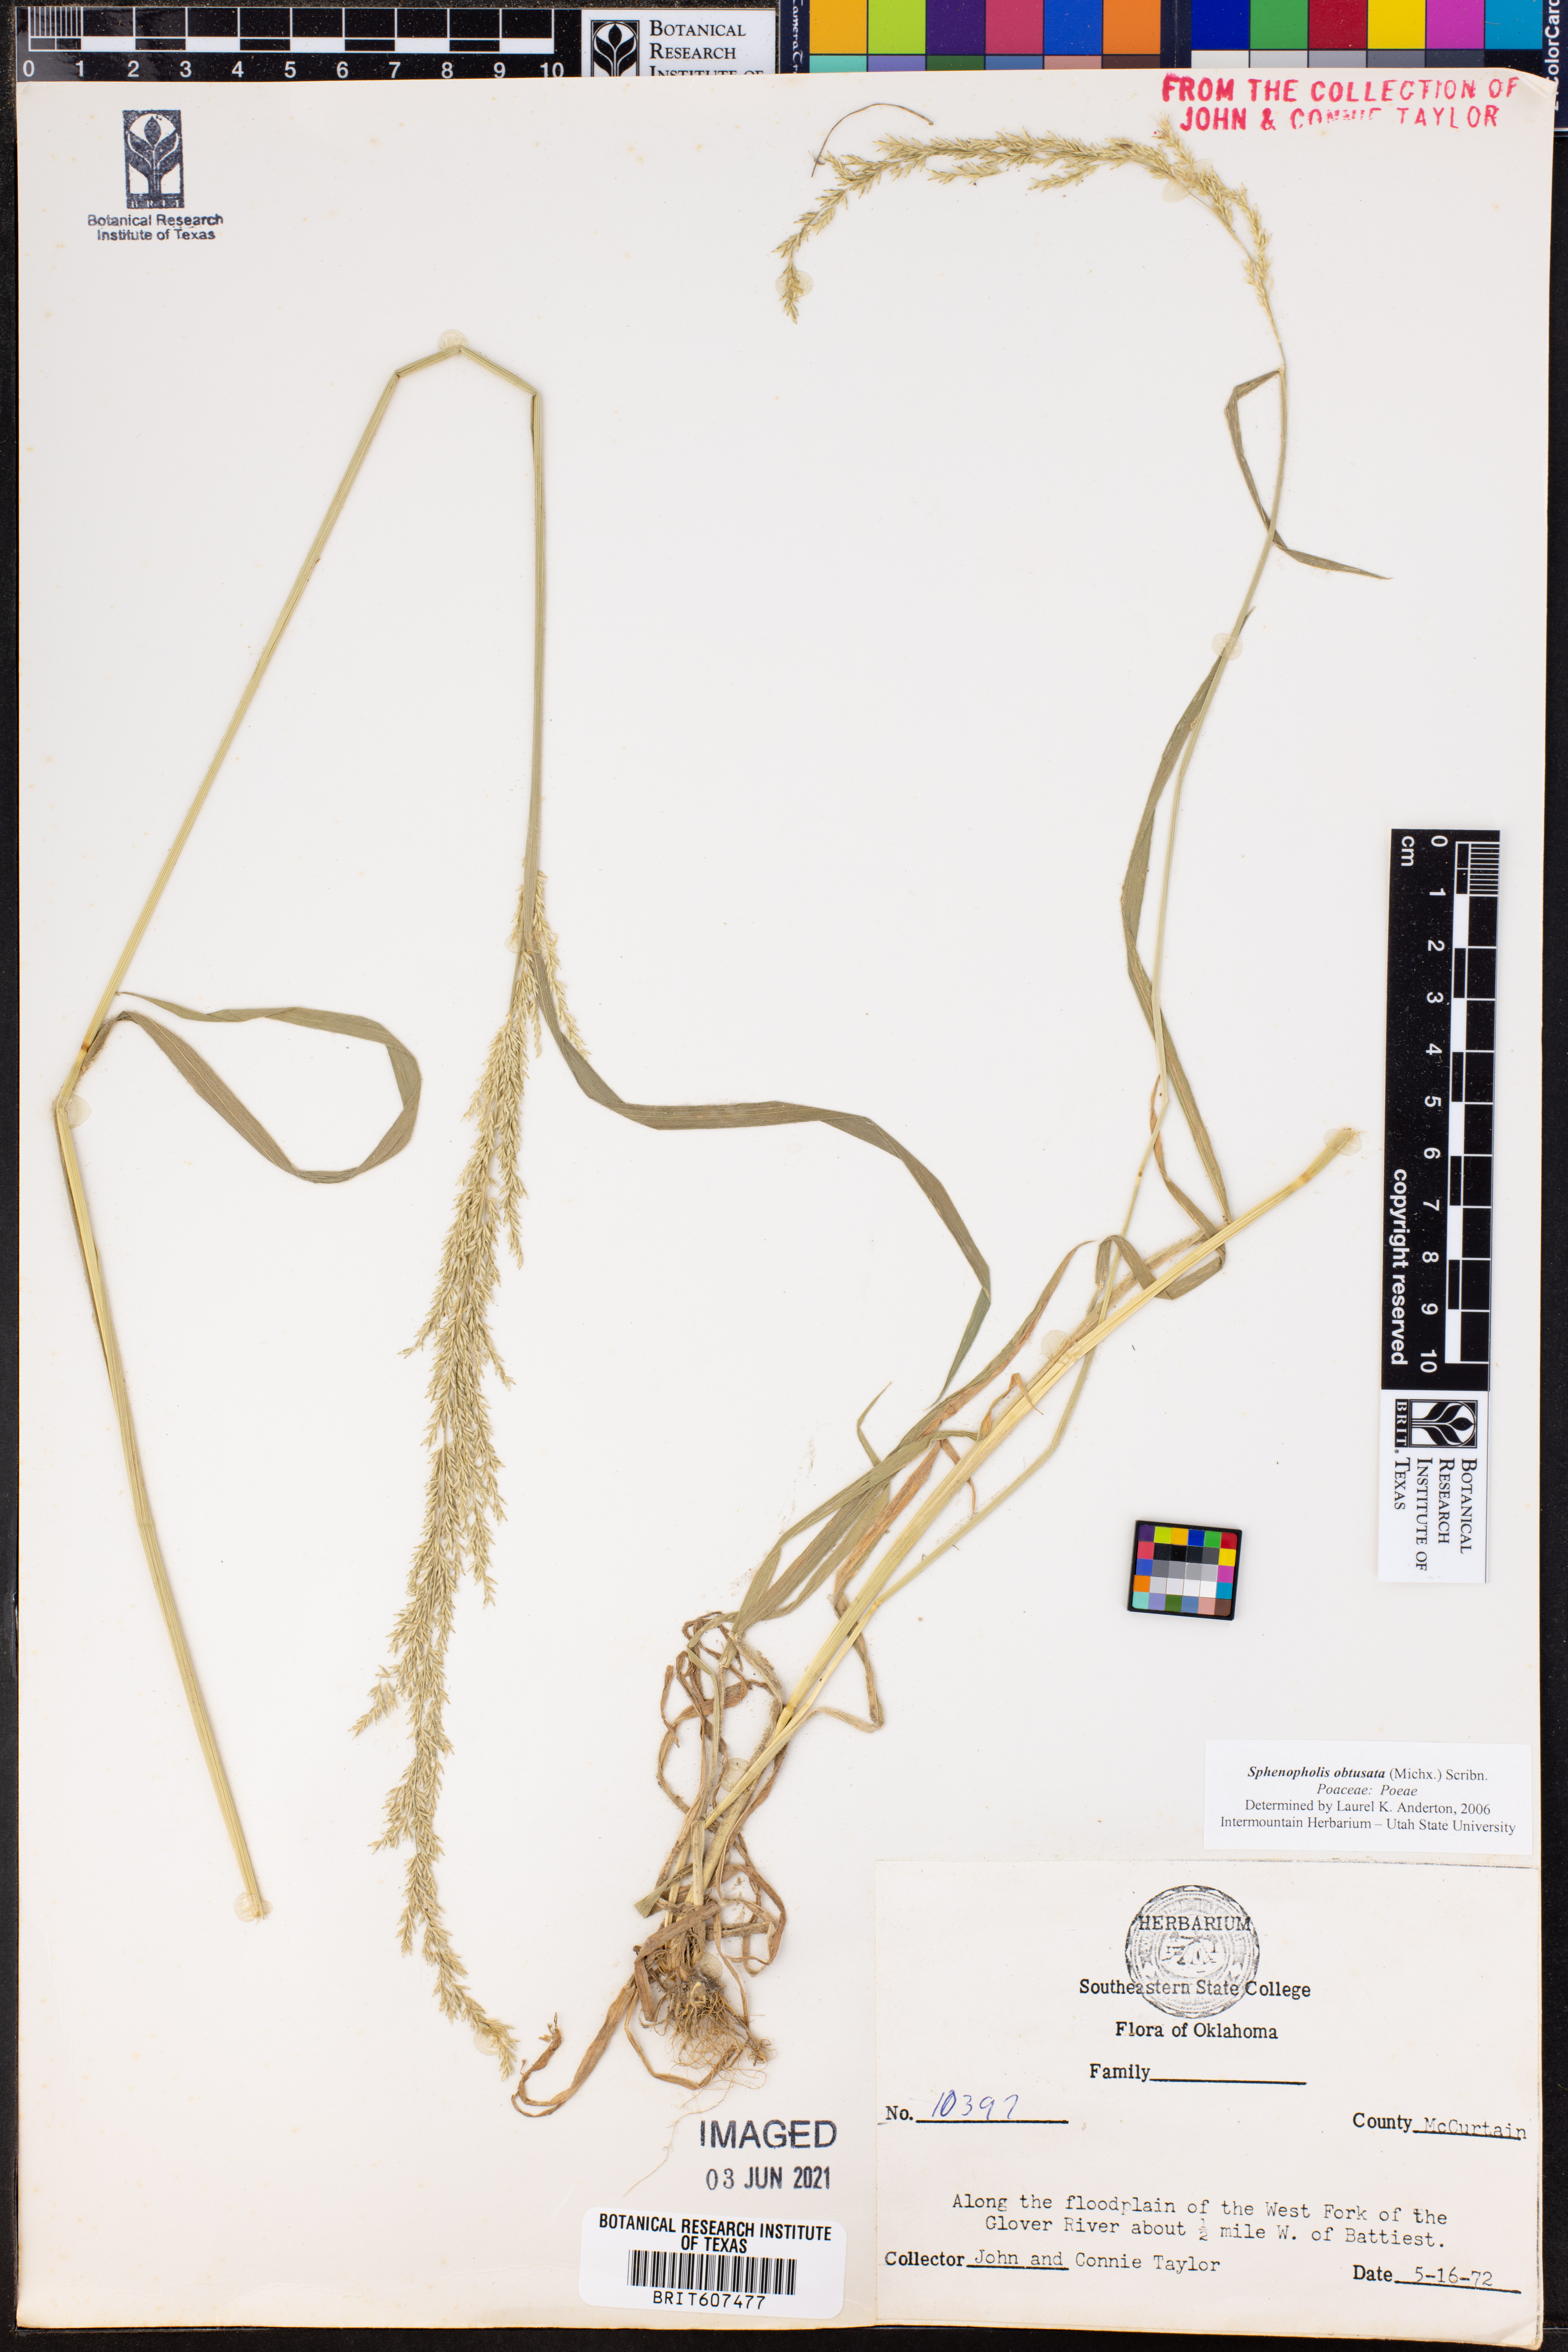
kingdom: Plantae
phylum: Tracheophyta
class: Liliopsida
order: Poales
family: Poaceae
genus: Sphenopholis
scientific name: Sphenopholis obtusata
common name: Prairie grass
